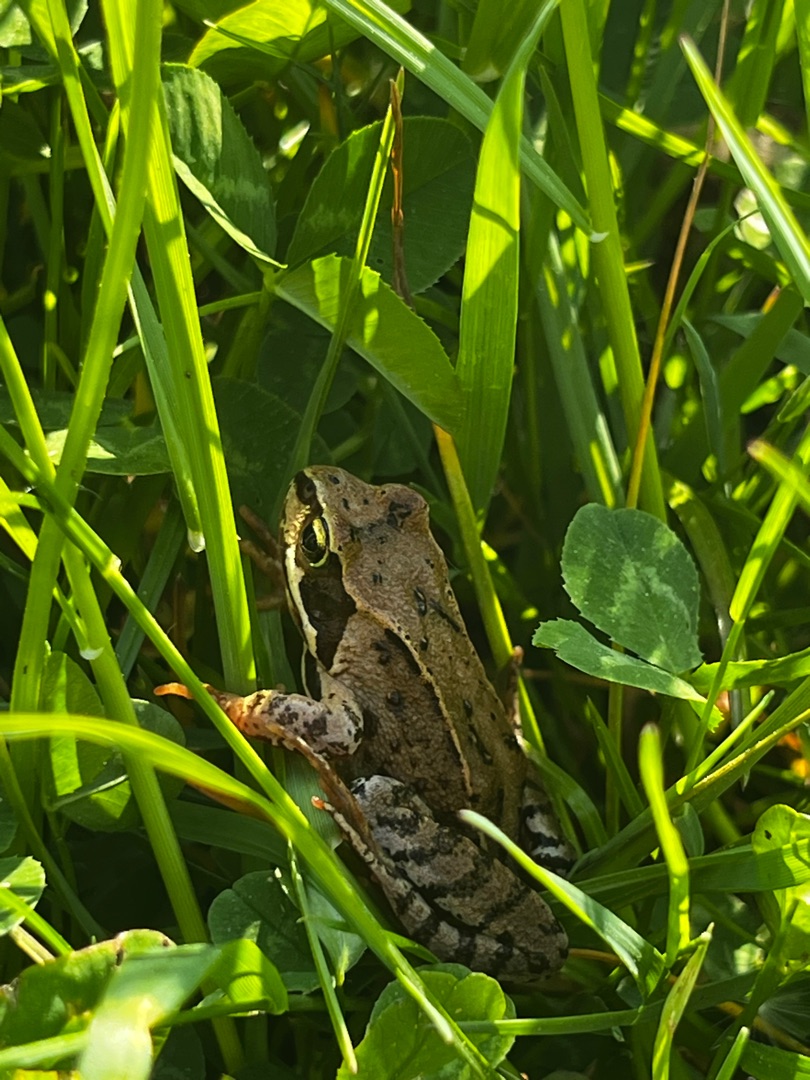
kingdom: Animalia
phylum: Chordata
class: Amphibia
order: Anura
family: Ranidae
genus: Rana
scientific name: Rana temporaria
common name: Butsnudet frø
